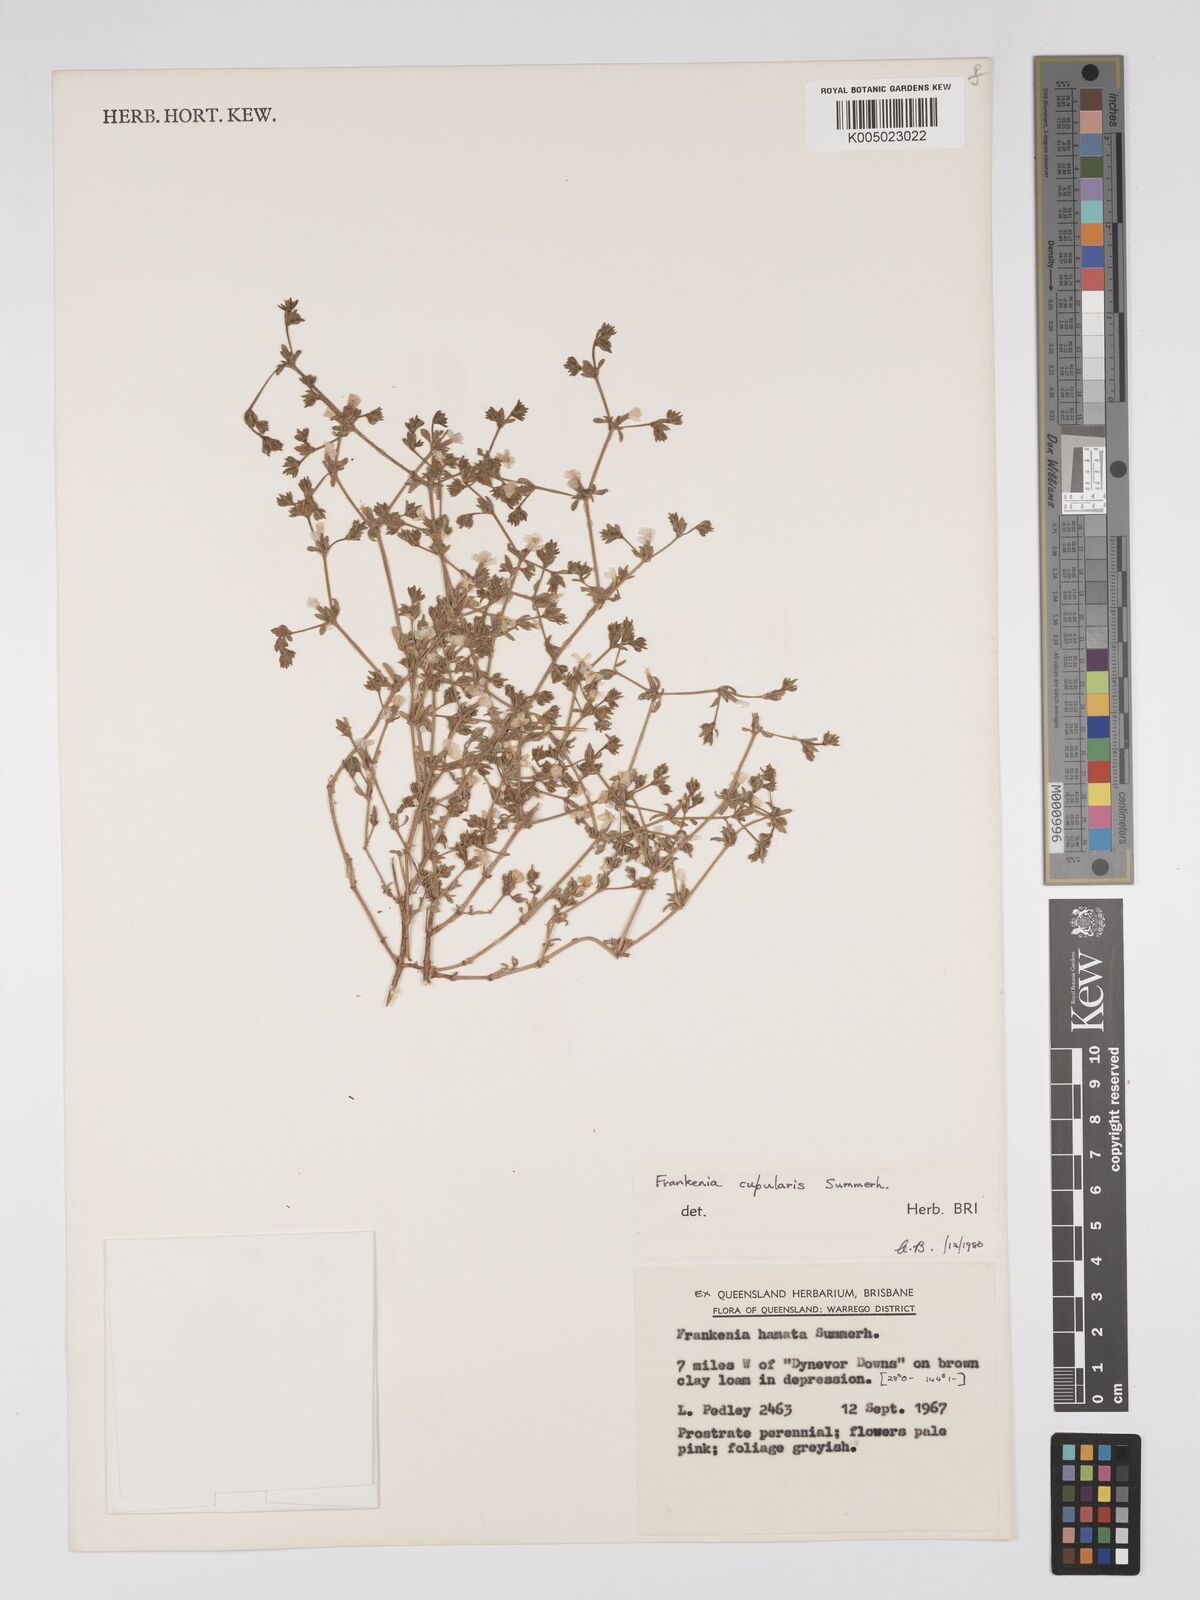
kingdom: Plantae
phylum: Tracheophyta
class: Magnoliopsida
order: Caryophyllales
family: Frankeniaceae
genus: Frankenia
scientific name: Frankenia cupularis
